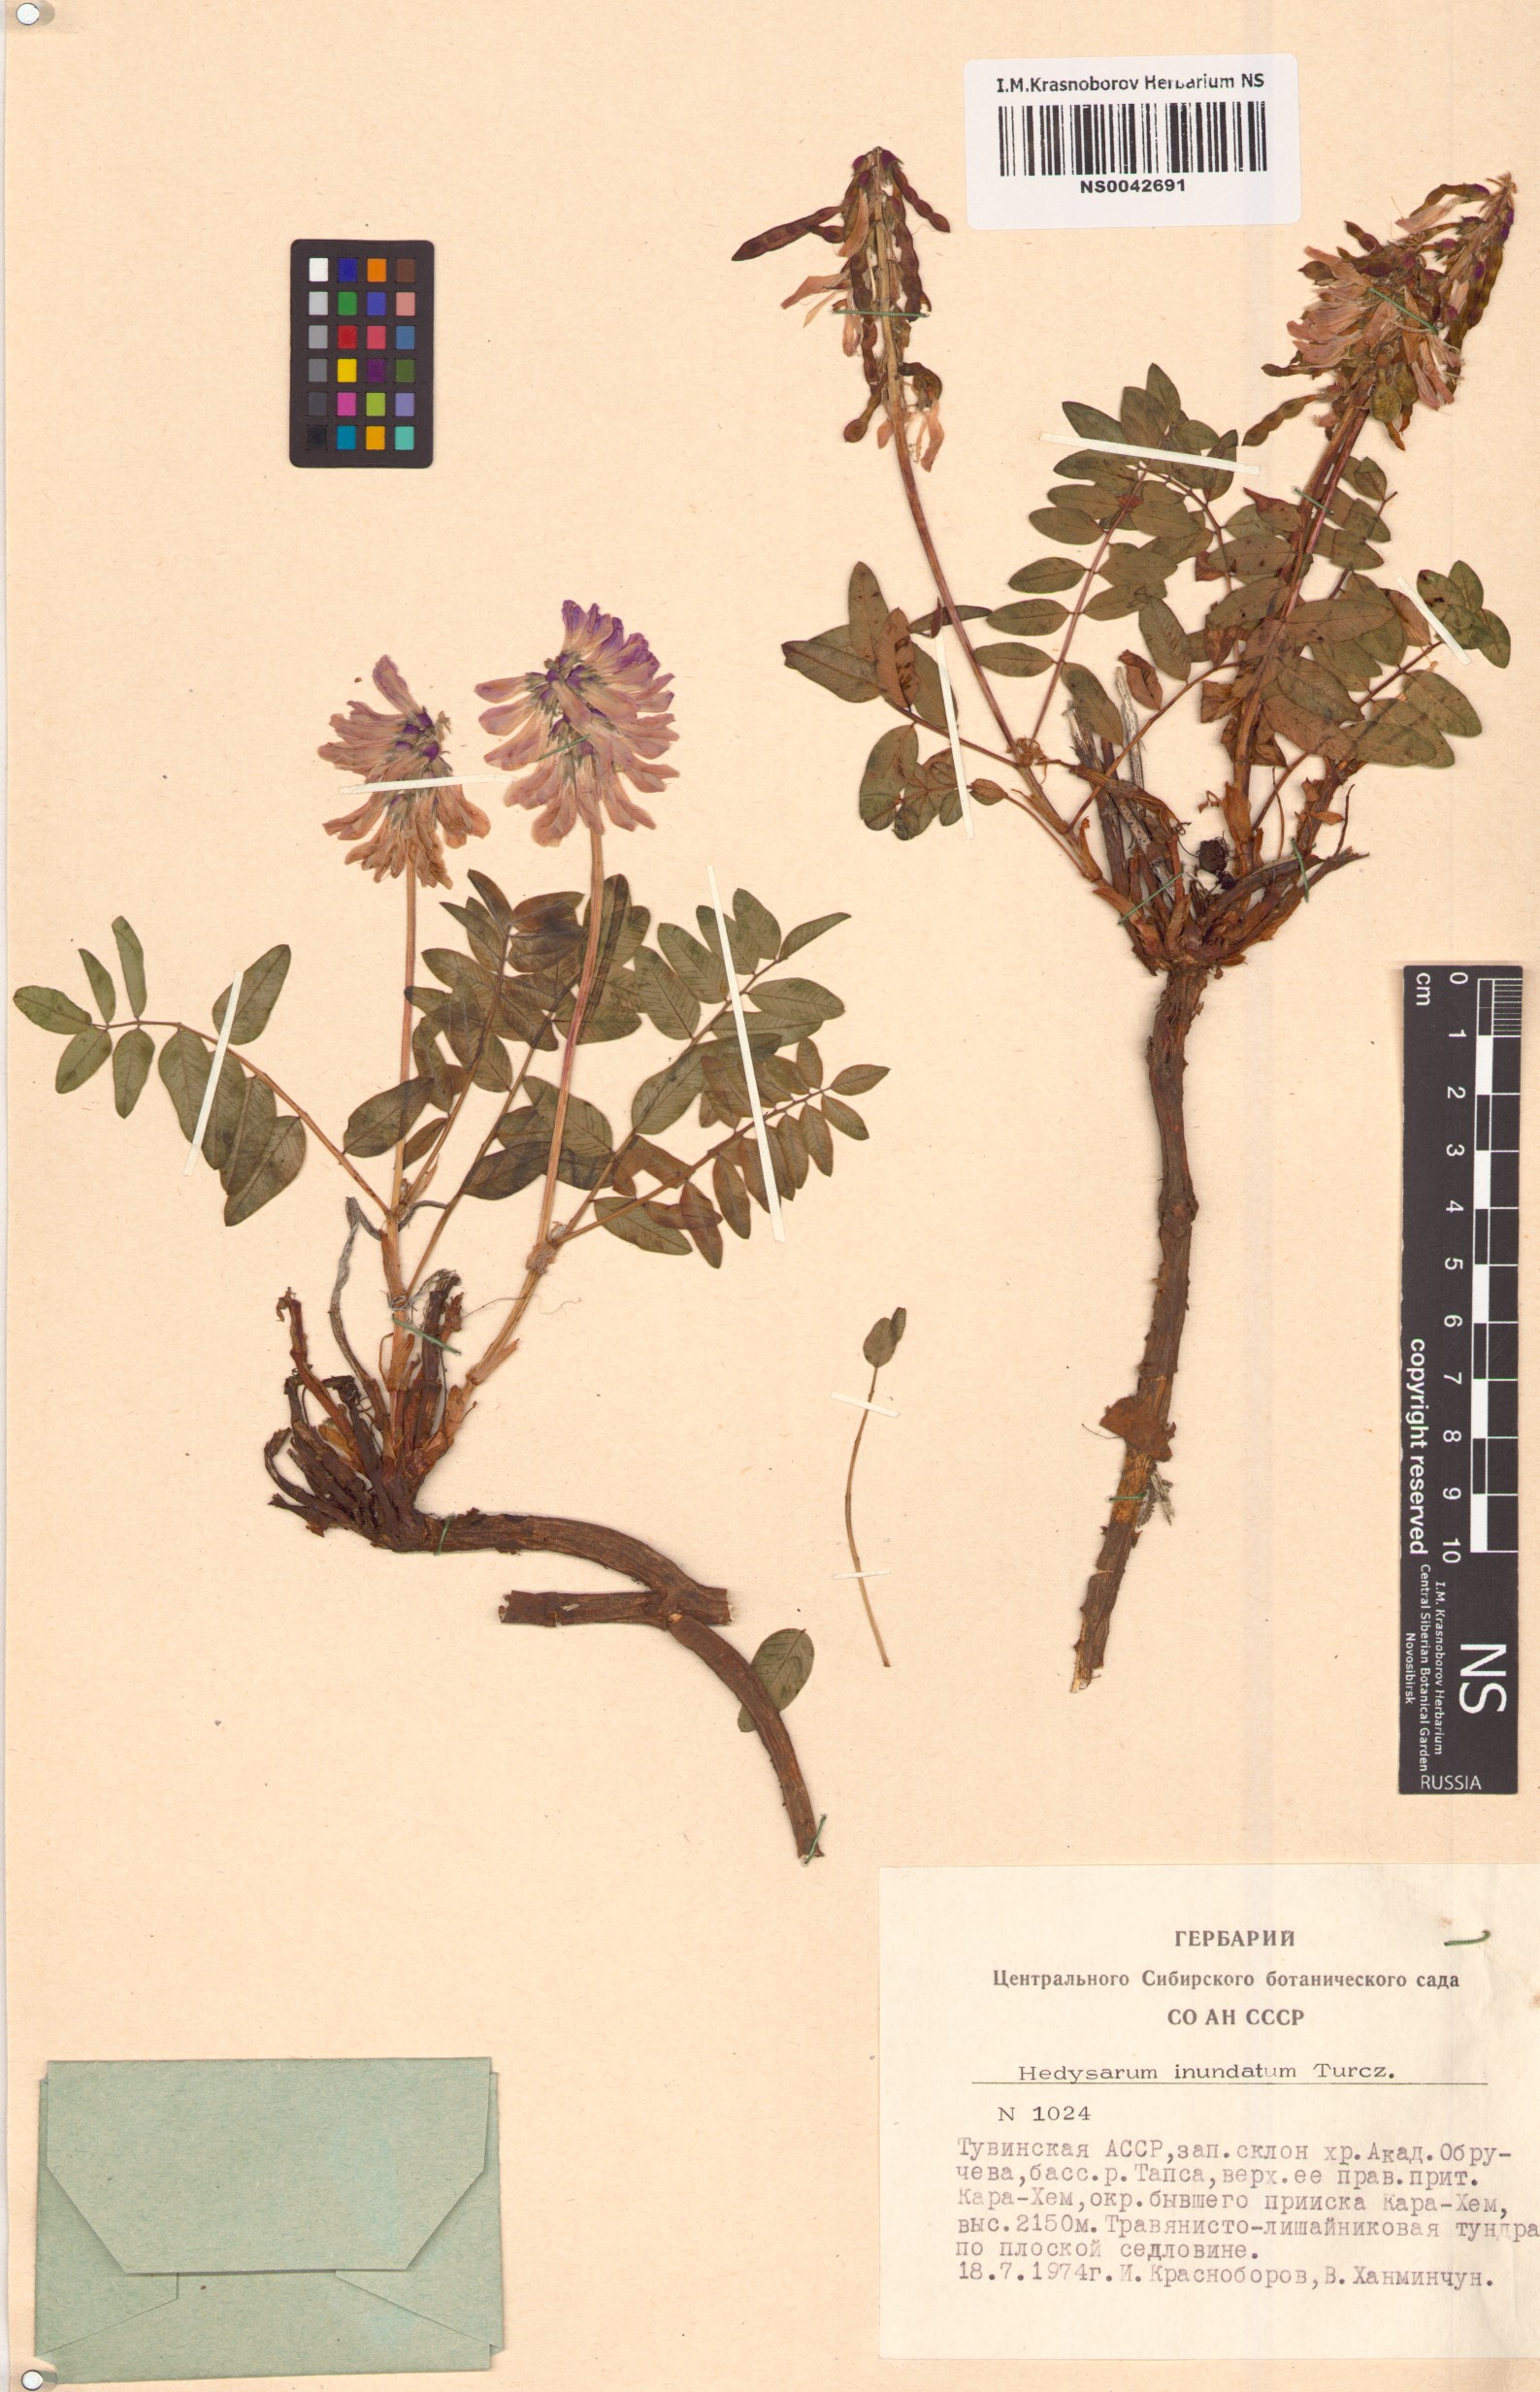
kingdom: Plantae
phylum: Tracheophyta
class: Magnoliopsida
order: Fabales
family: Fabaceae
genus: Hedysarum
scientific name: Hedysarum inundatum
